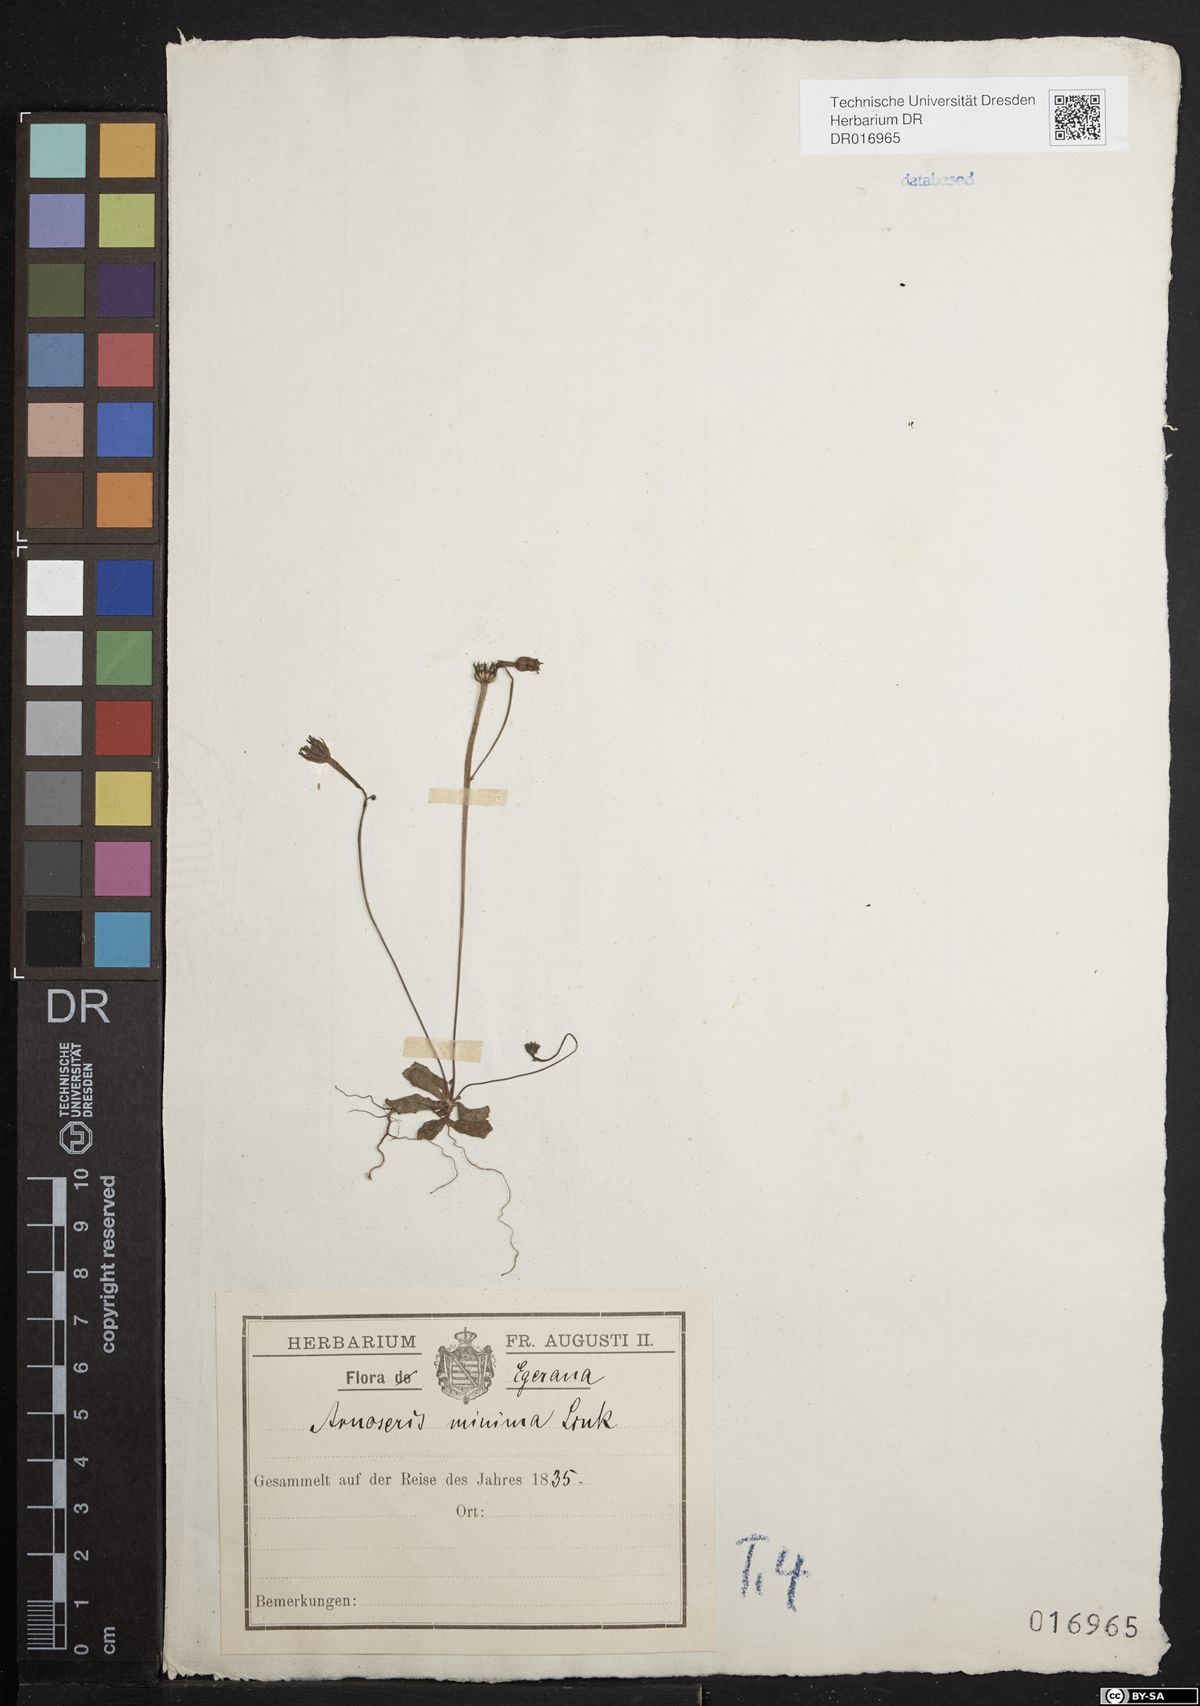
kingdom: Plantae
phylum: Tracheophyta
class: Magnoliopsida
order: Asterales
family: Asteraceae
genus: Arnoseris
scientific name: Arnoseris minima
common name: Lamb's succory
